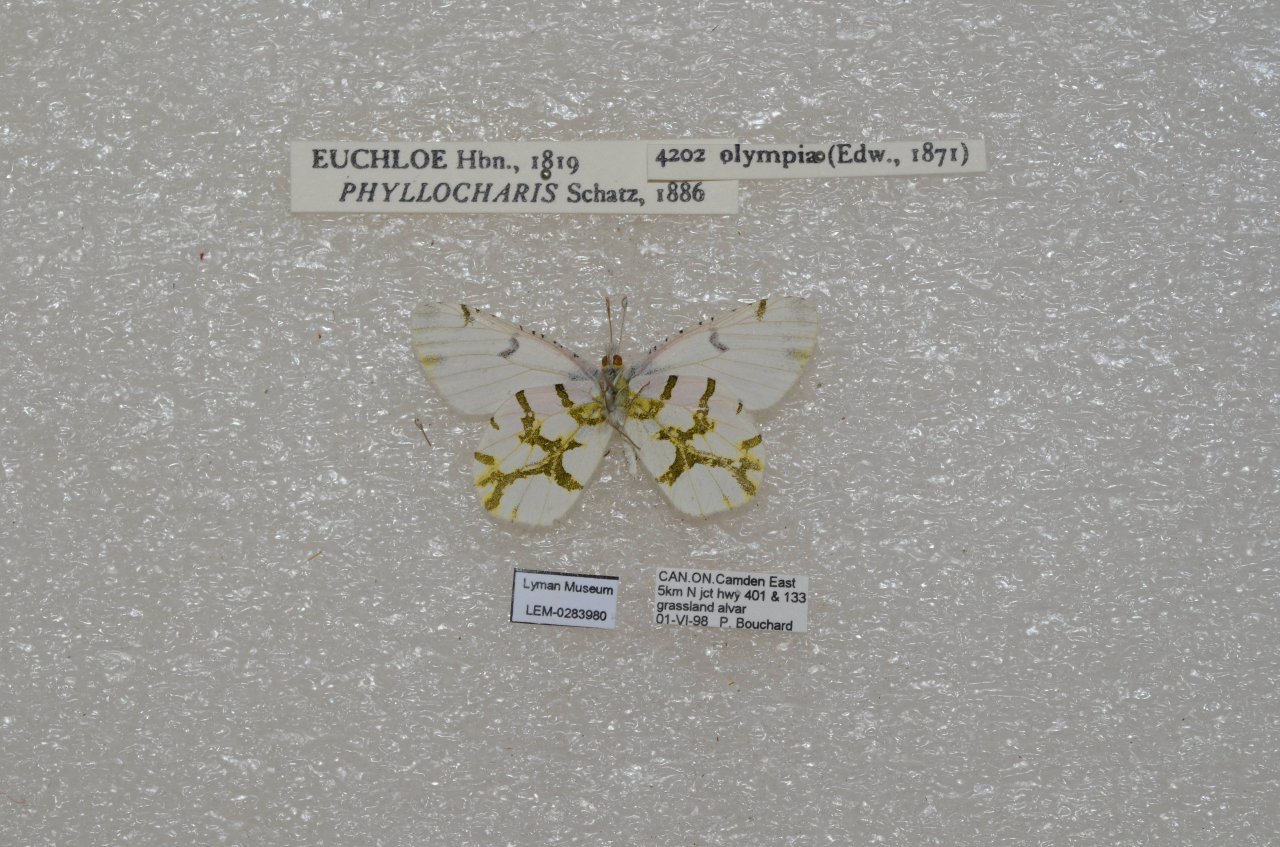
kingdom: Animalia
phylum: Arthropoda
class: Insecta
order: Lepidoptera
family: Pieridae
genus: Euchloe
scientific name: Euchloe olympia
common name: Olympia Marble
